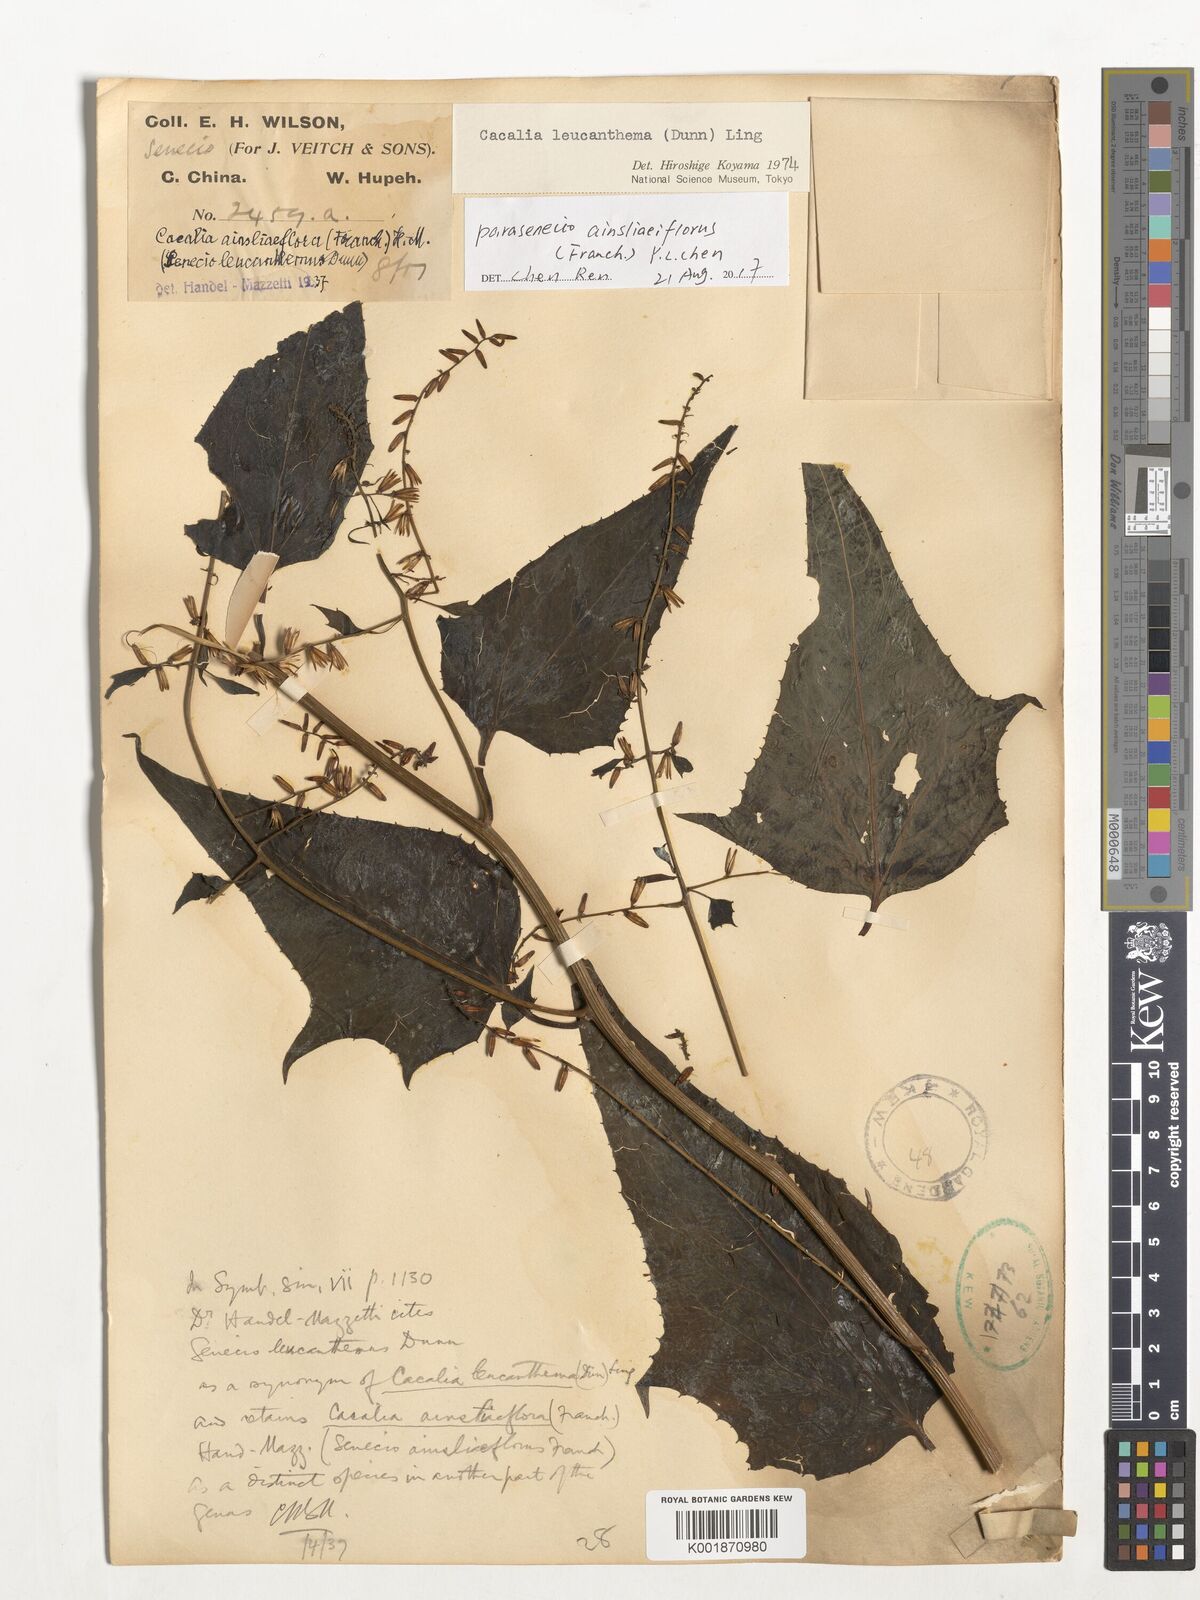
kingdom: Plantae
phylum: Tracheophyta
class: Magnoliopsida
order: Asterales
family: Asteraceae
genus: Parasenecio
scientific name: Parasenecio ainsliaeiflorus
